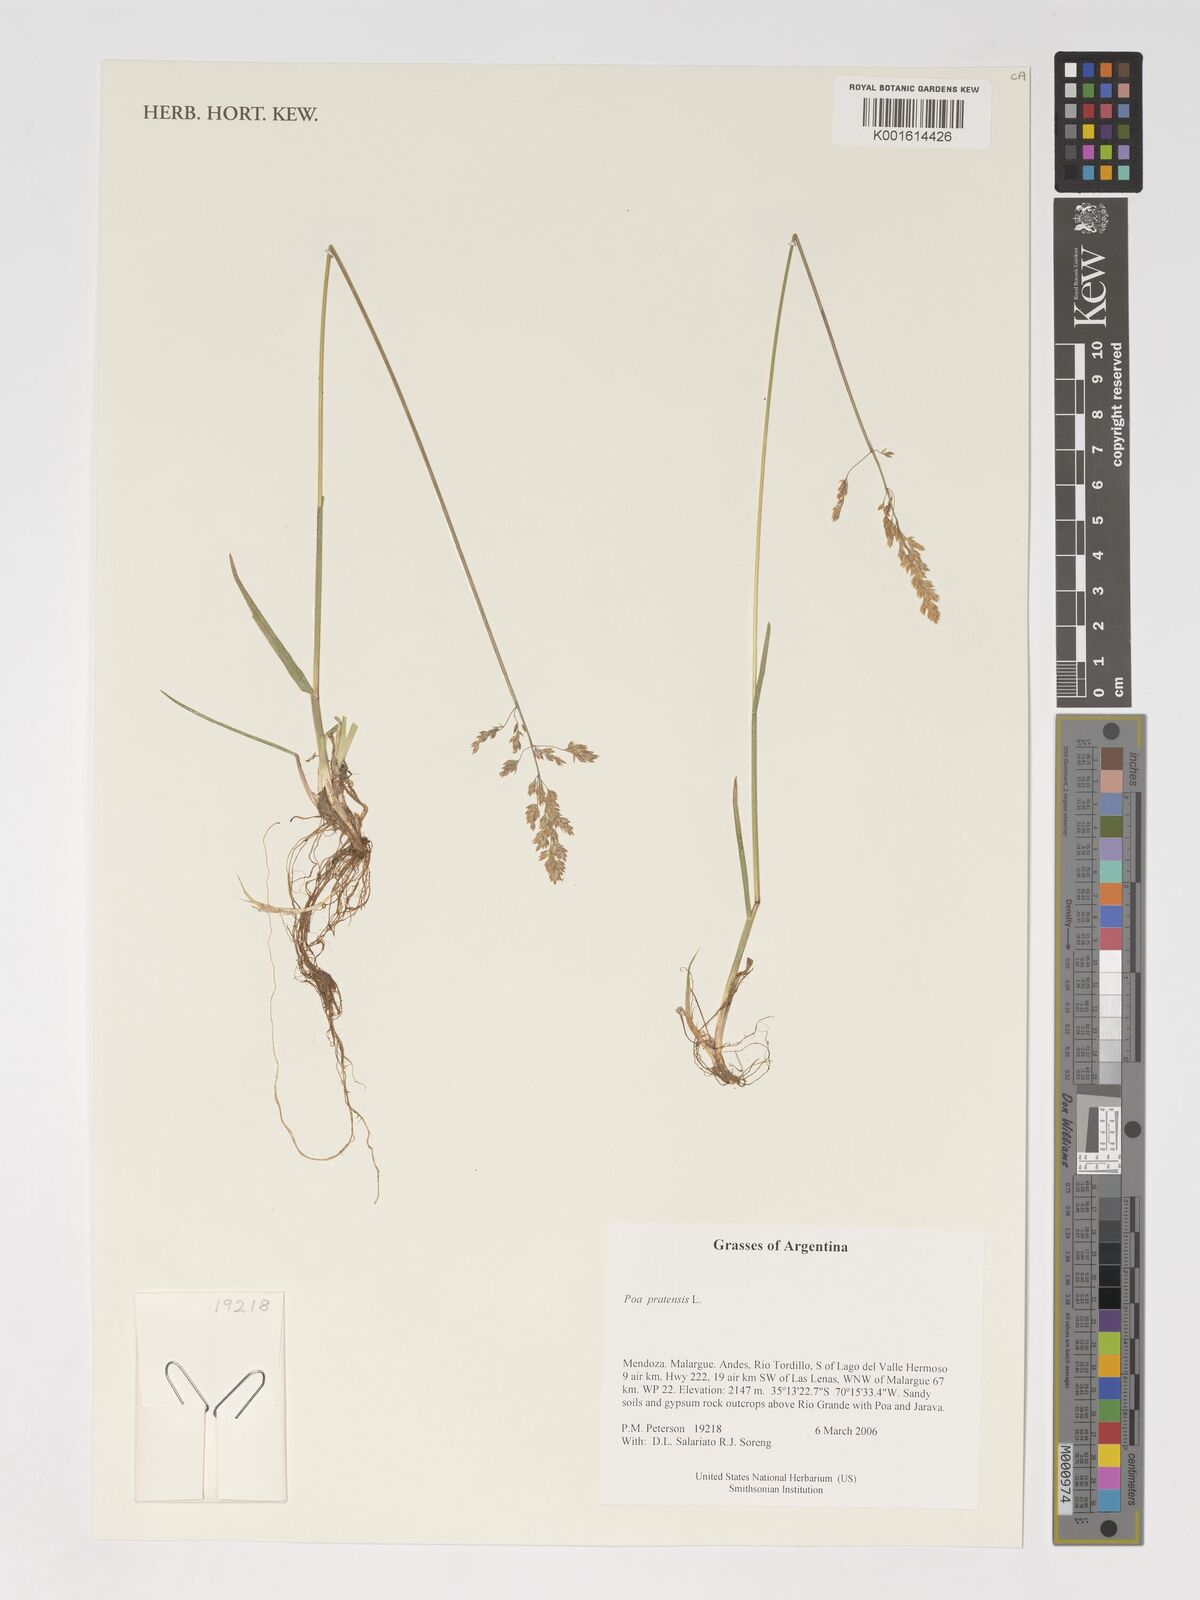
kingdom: Plantae
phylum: Tracheophyta
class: Liliopsida
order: Poales
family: Poaceae
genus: Poa
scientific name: Poa pratensis
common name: Kentucky bluegrass
